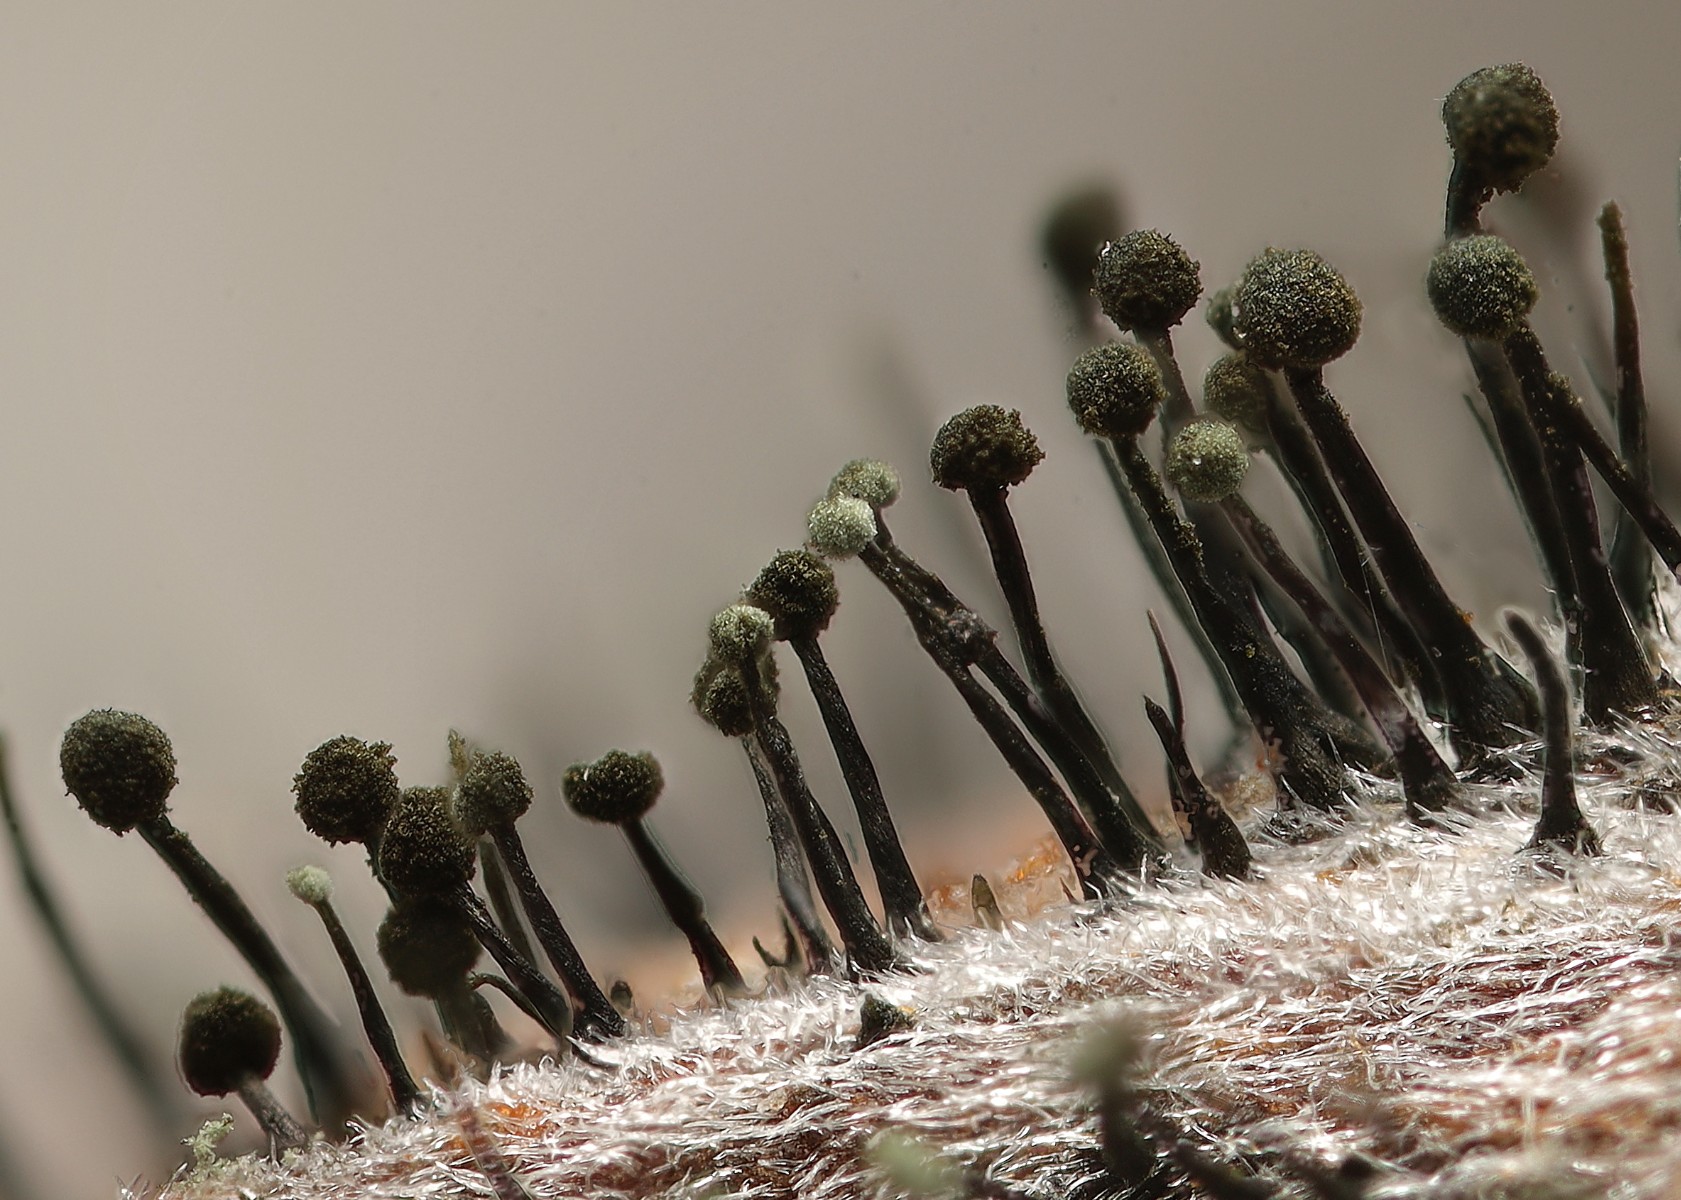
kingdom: Fungi
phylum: Ascomycota
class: Dothideomycetes
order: Pleosporales
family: Melanommataceae
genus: Seifertia
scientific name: Seifertia azaleae
